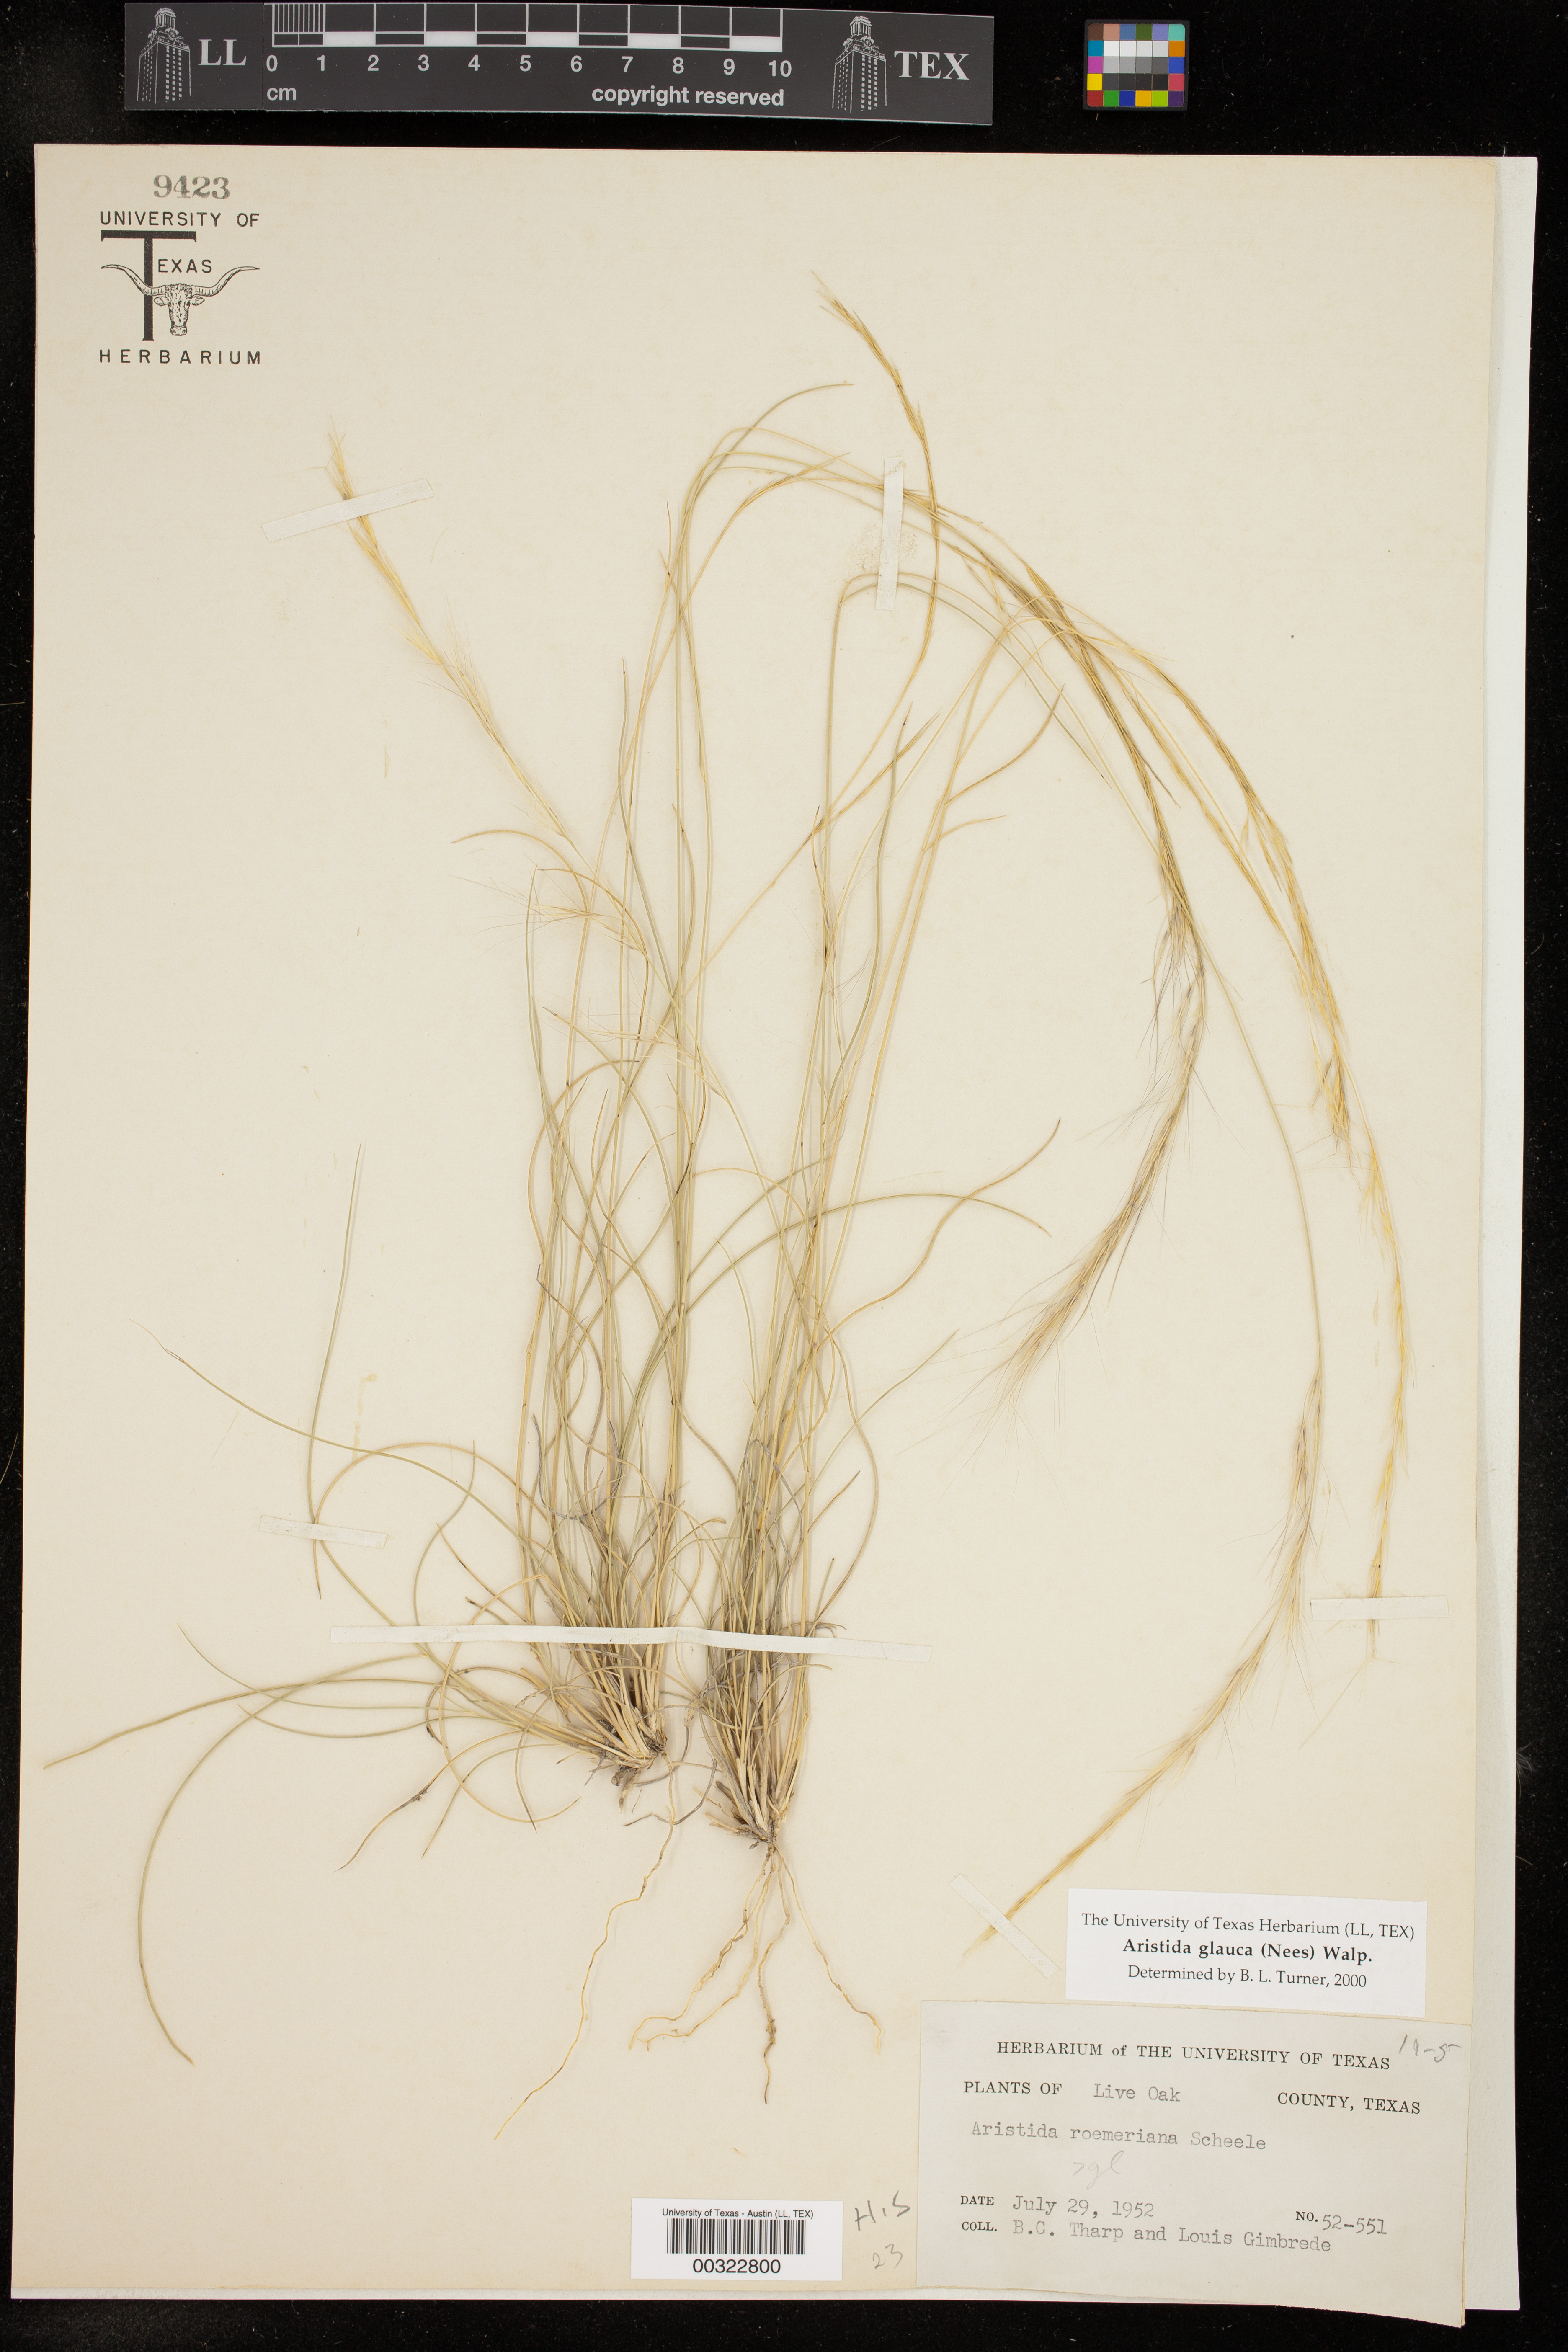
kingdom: Plantae
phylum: Tracheophyta
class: Liliopsida
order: Poales
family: Poaceae
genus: Aristida
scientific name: Aristida glauca
